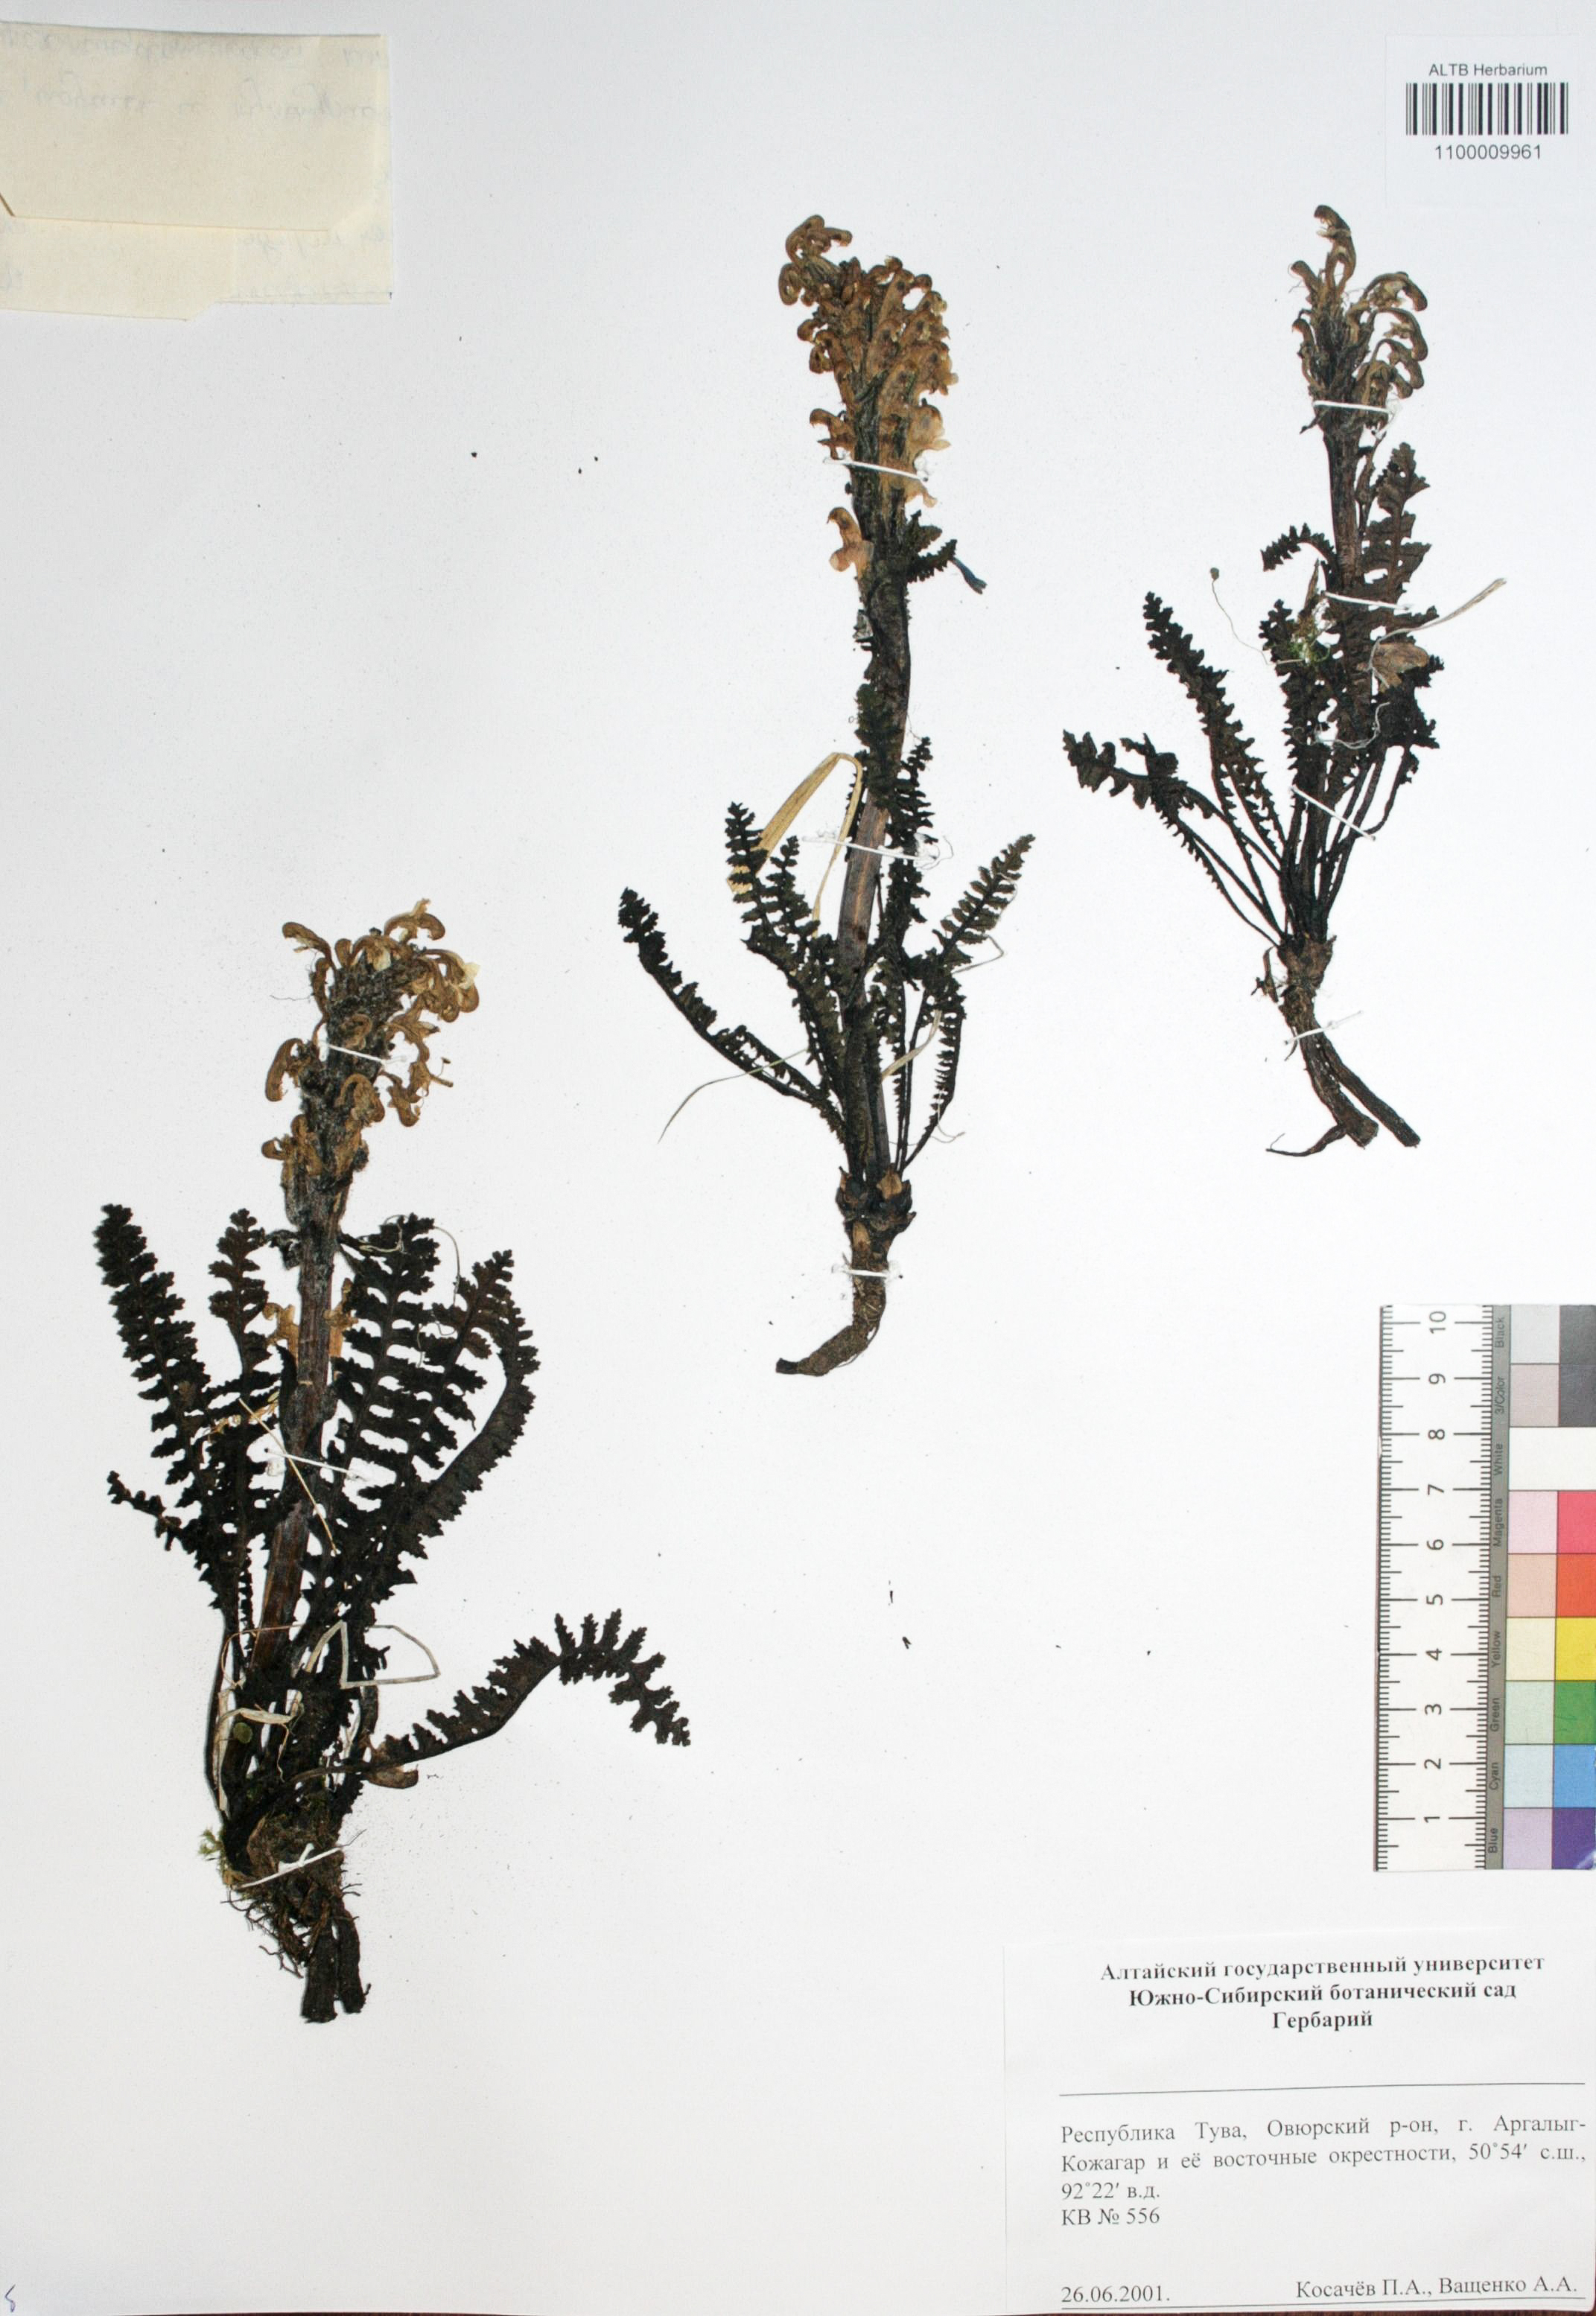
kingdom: Plantae
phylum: Tracheophyta
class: Magnoliopsida
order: Lamiales
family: Orobanchaceae
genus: Pedicularis
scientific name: Pedicularis uliginosa
